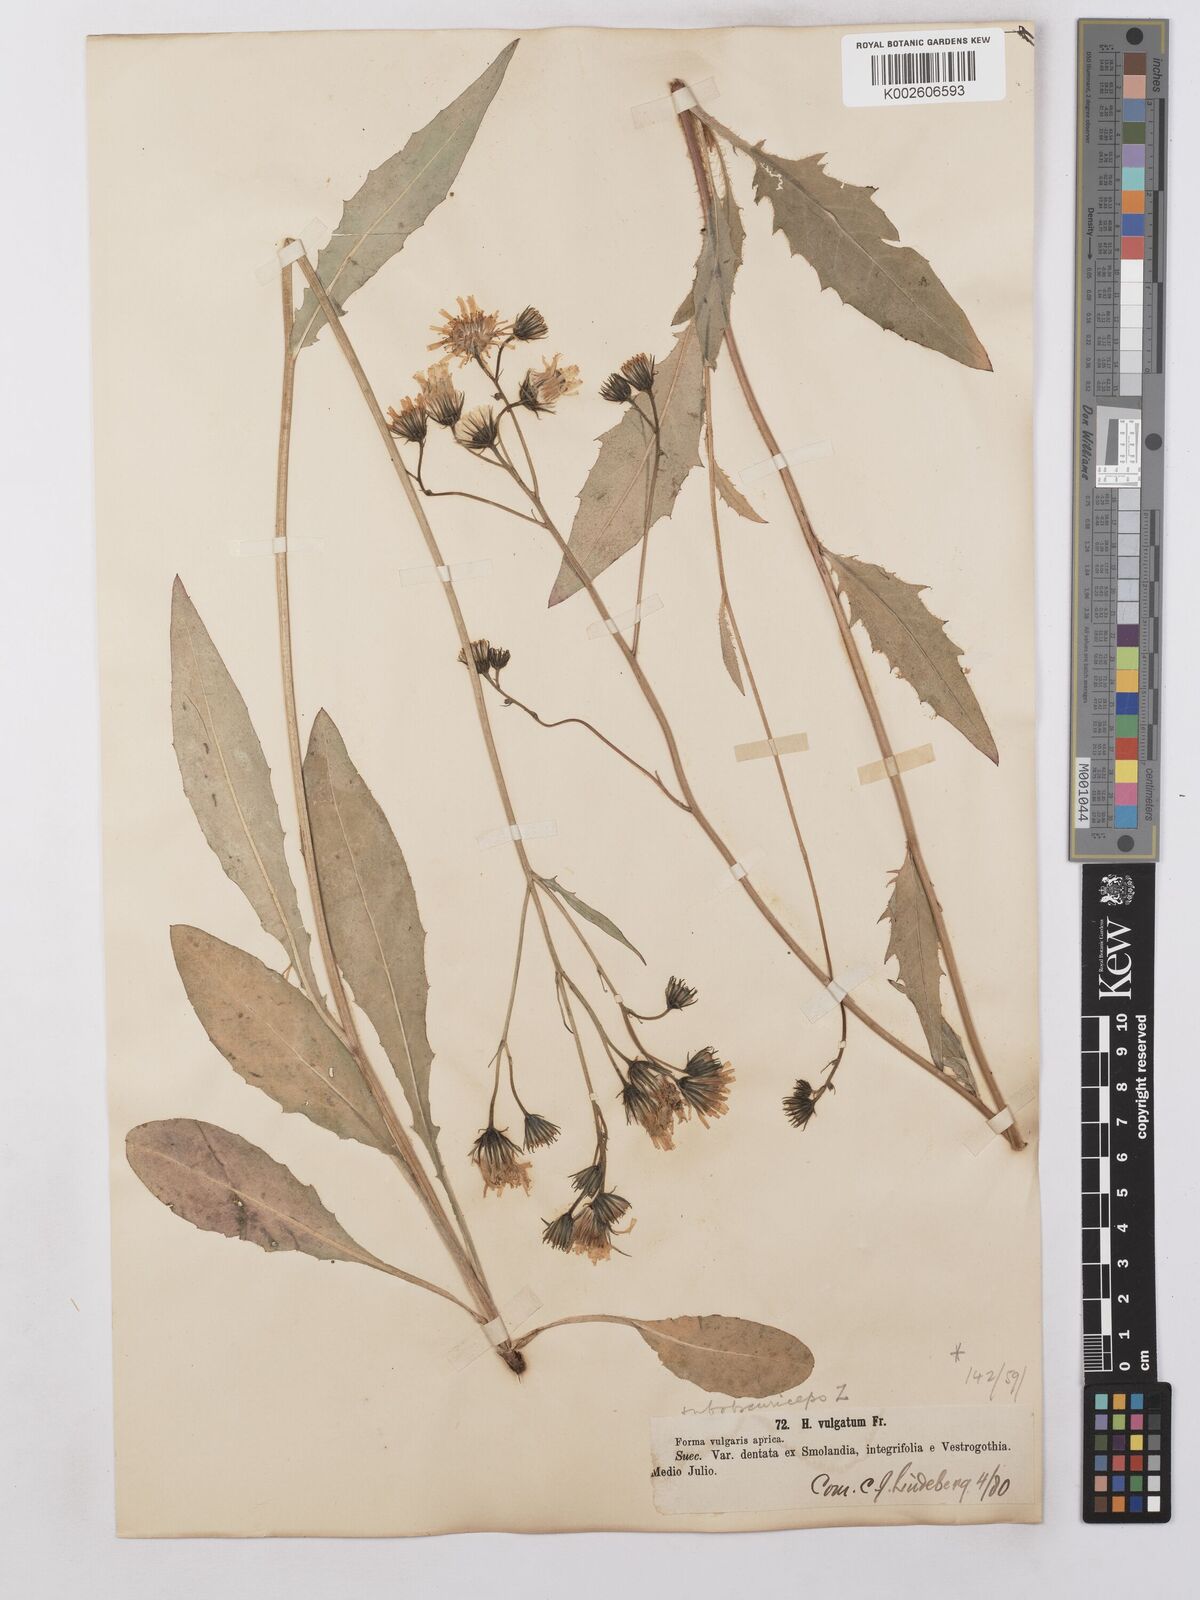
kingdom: Plantae
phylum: Tracheophyta
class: Magnoliopsida
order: Asterales
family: Asteraceae
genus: Hieracium
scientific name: Hieracium lachenalii
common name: Common hawkweed
